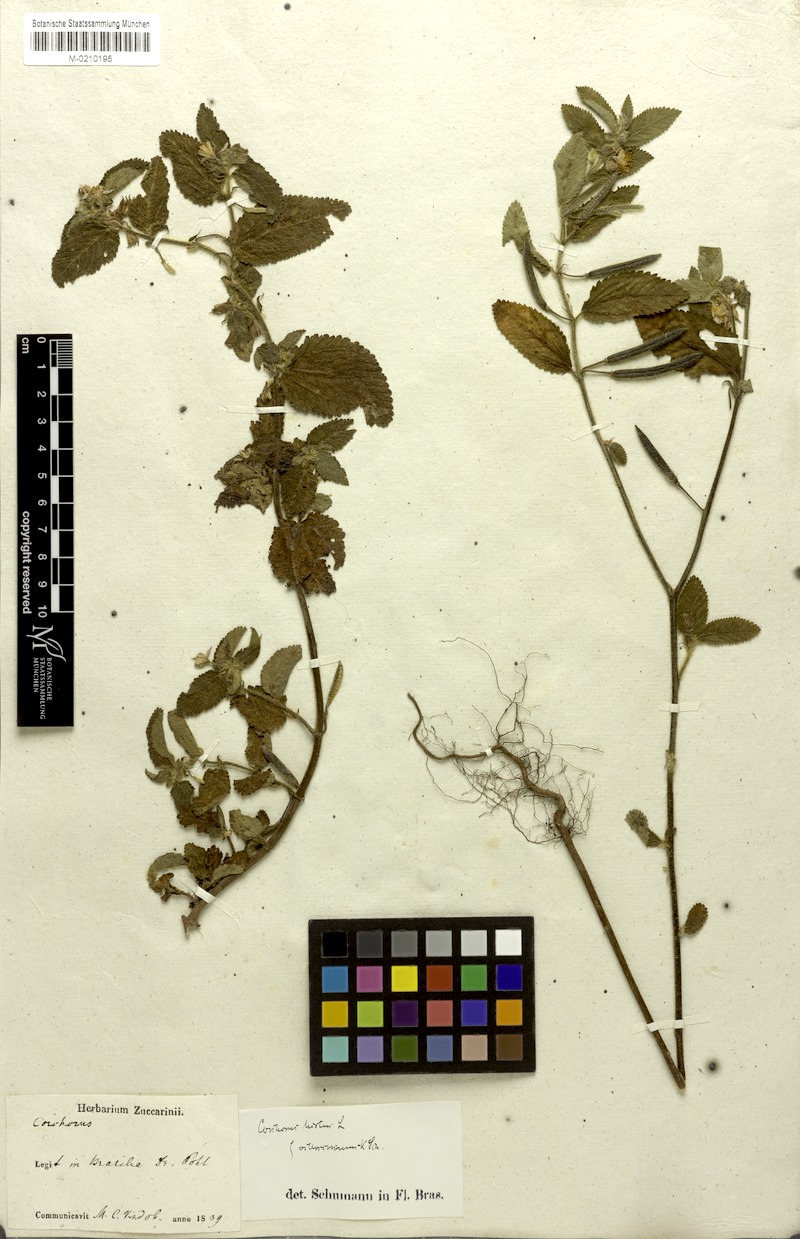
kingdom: Plantae
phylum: Tracheophyta
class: Magnoliopsida
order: Malvales
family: Malvaceae
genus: Corchorus
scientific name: Corchorus hirtus
